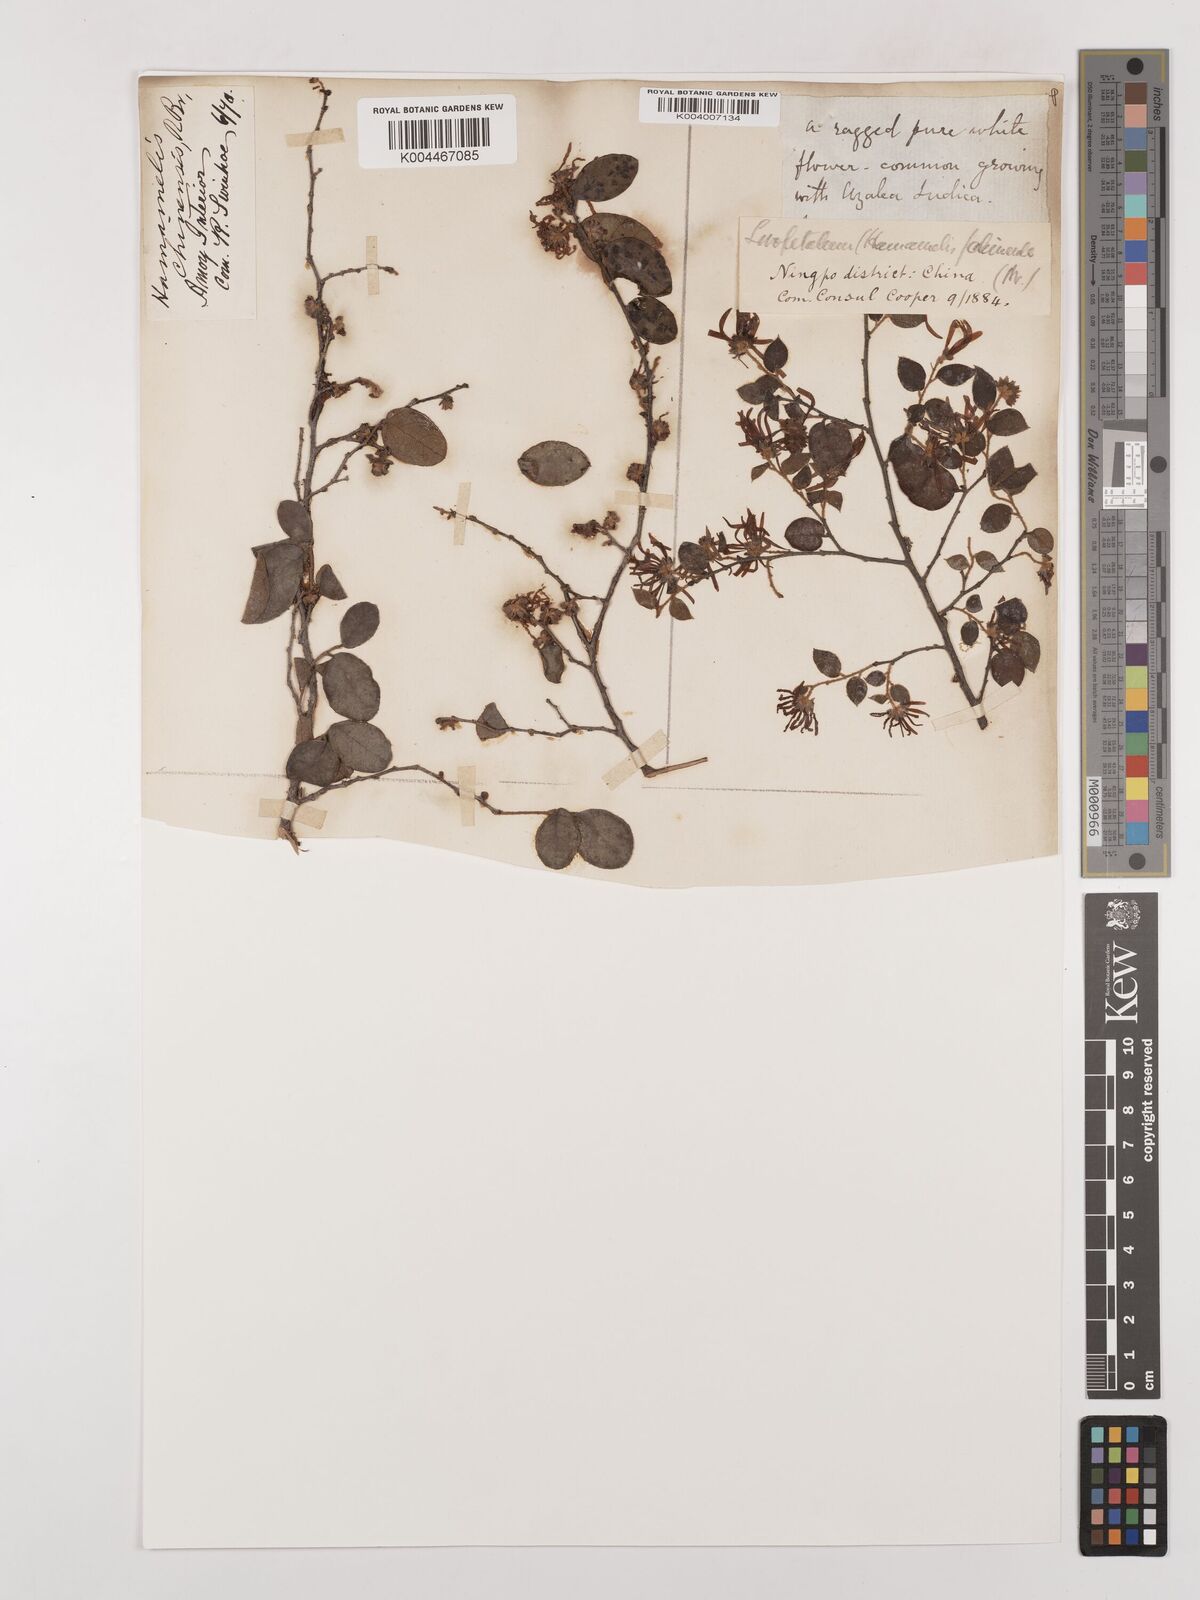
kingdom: Plantae
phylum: Tracheophyta
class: Magnoliopsida
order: Saxifragales
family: Hamamelidaceae
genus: Loropetalum
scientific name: Loropetalum
